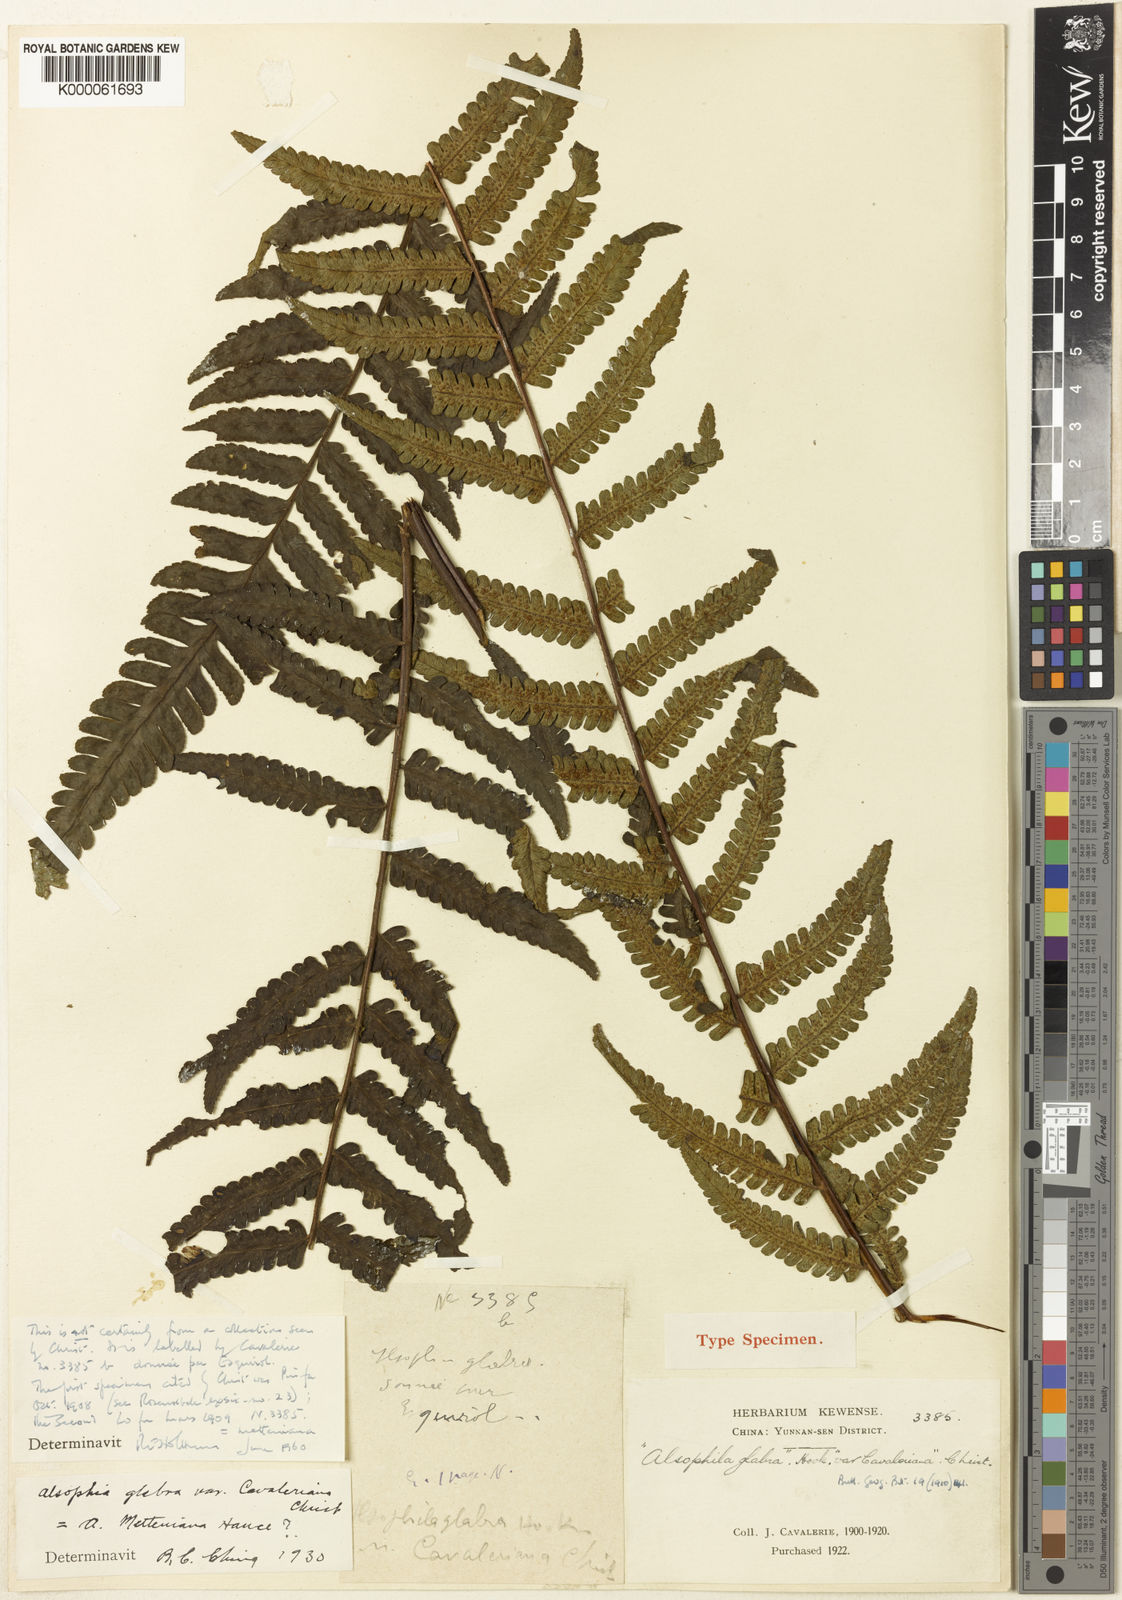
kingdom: Plantae
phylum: Tracheophyta
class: Polypodiopsida
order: Cyatheales
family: Cyatheaceae
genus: Gymnosphaera
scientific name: Gymnosphaera metteniana
